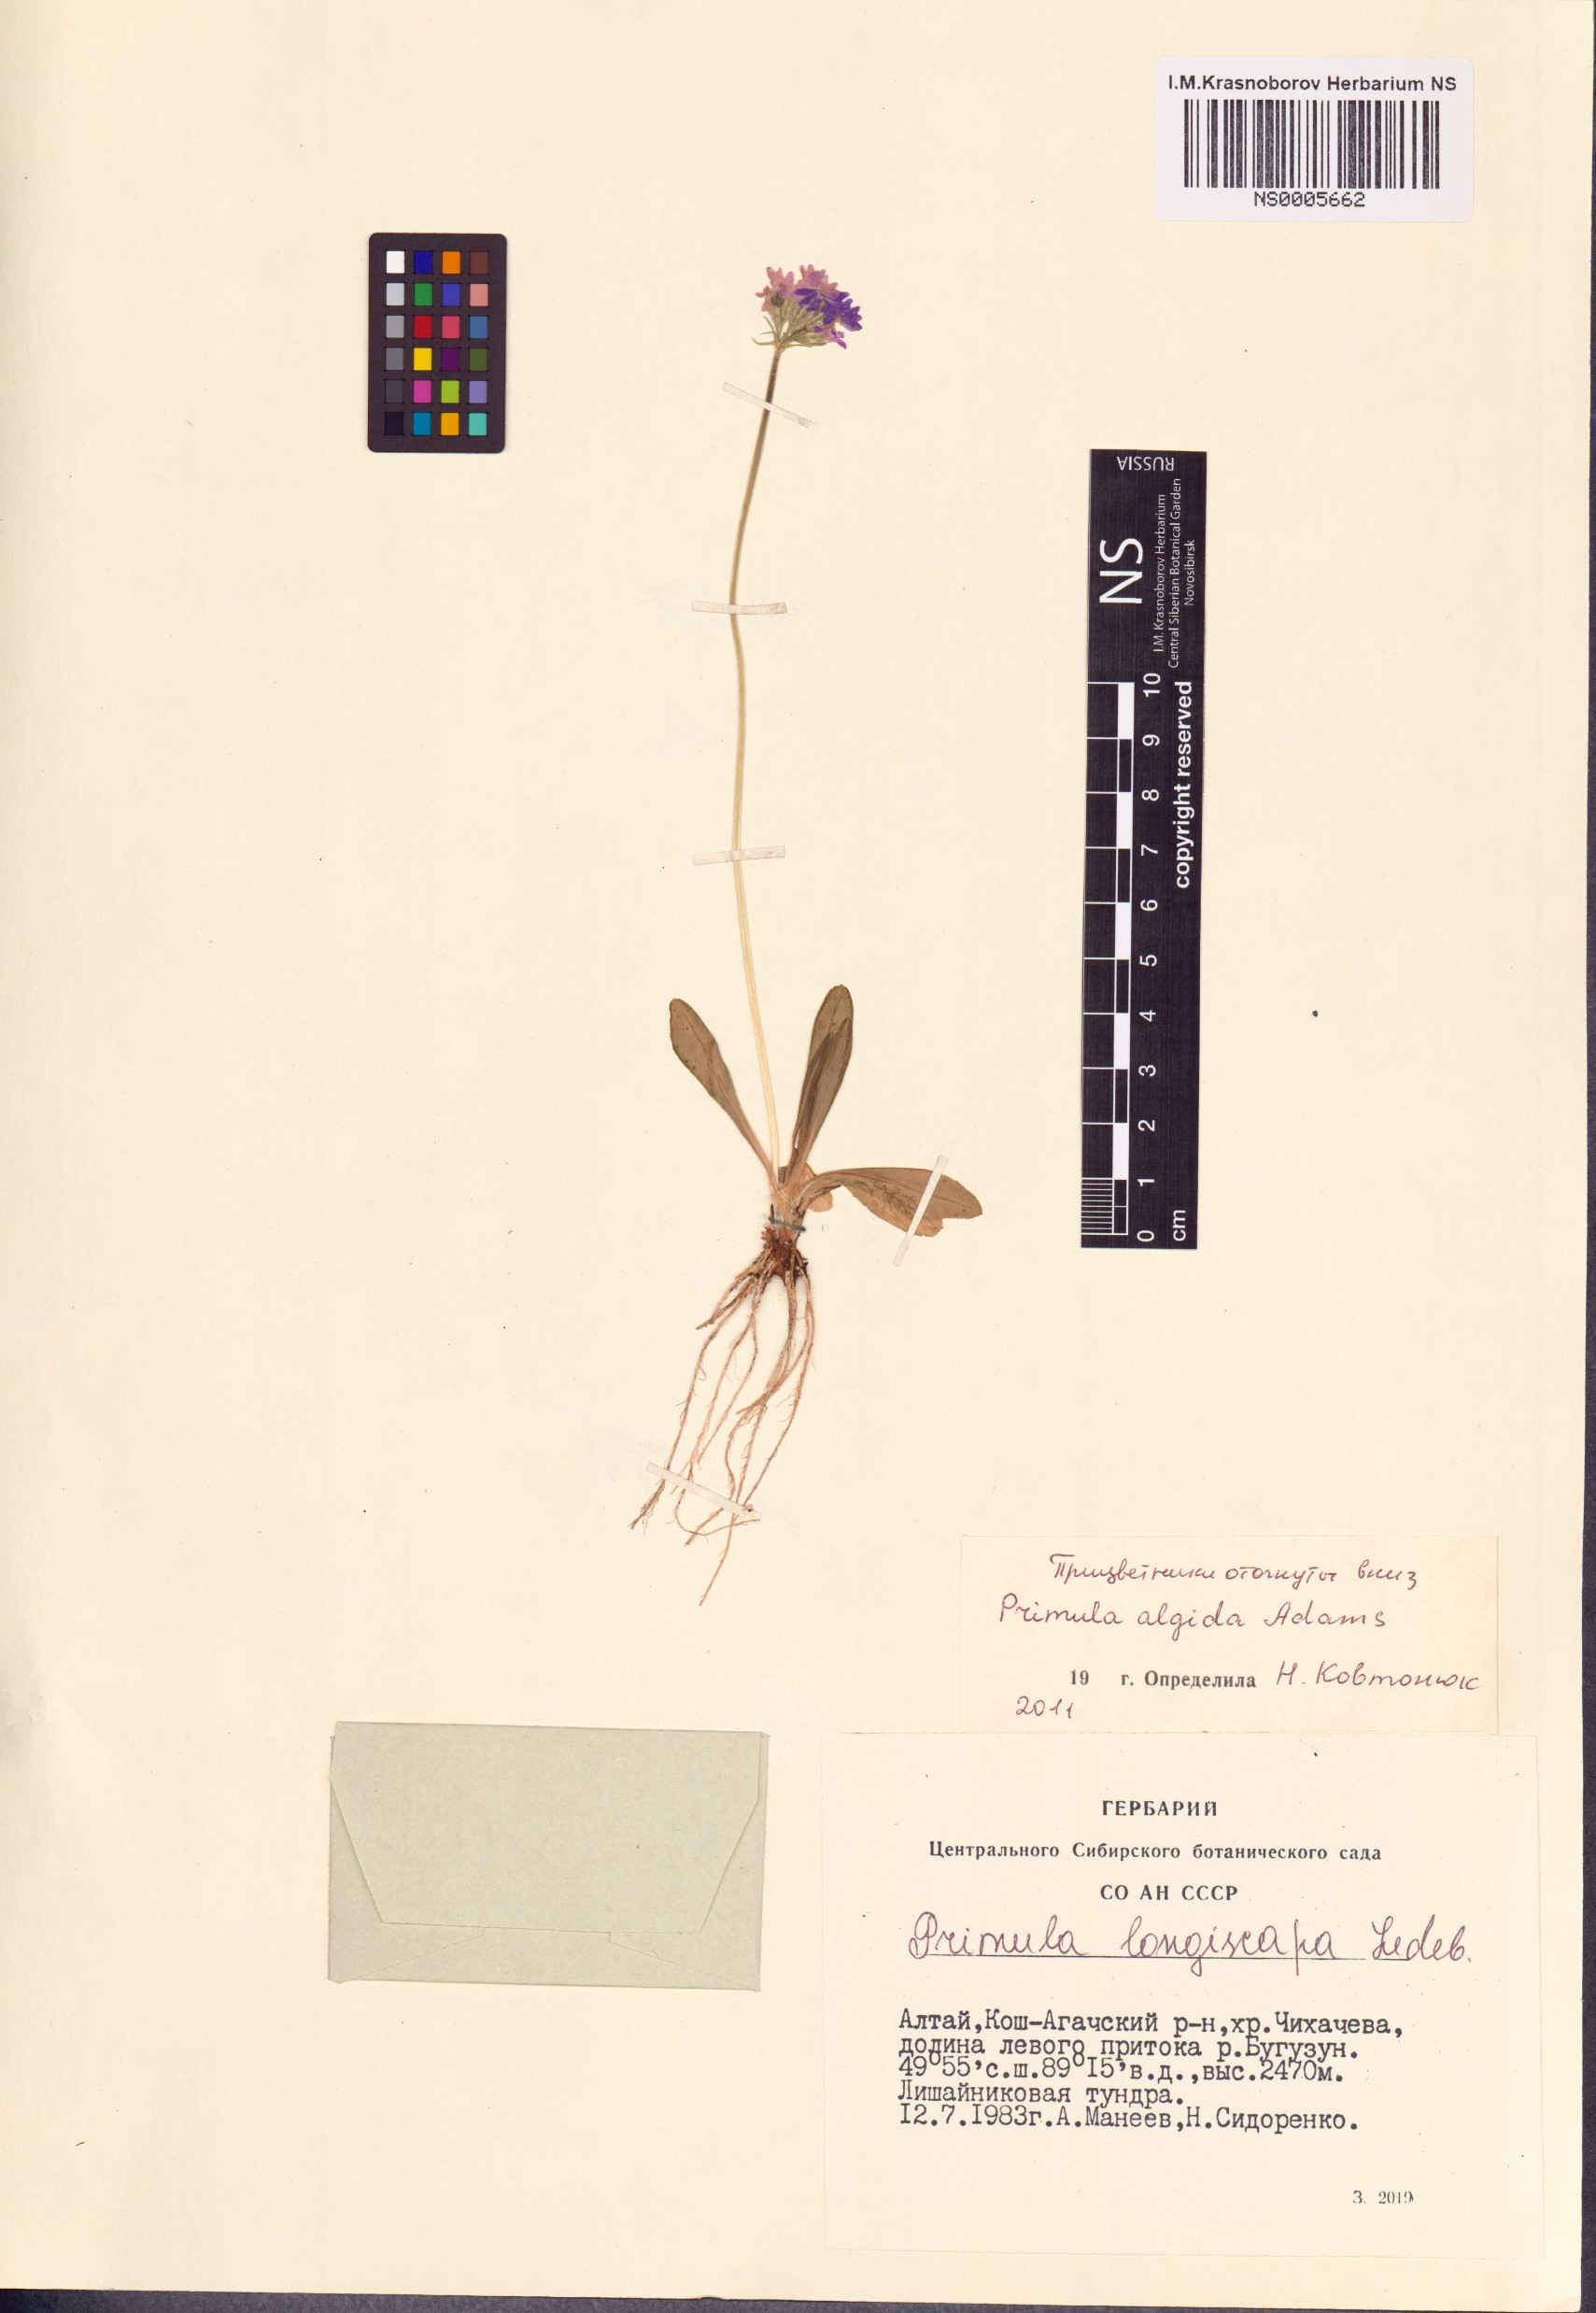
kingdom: Plantae
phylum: Tracheophyta
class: Magnoliopsida
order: Ericales
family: Primulaceae
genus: Primula
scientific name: Primula algida
